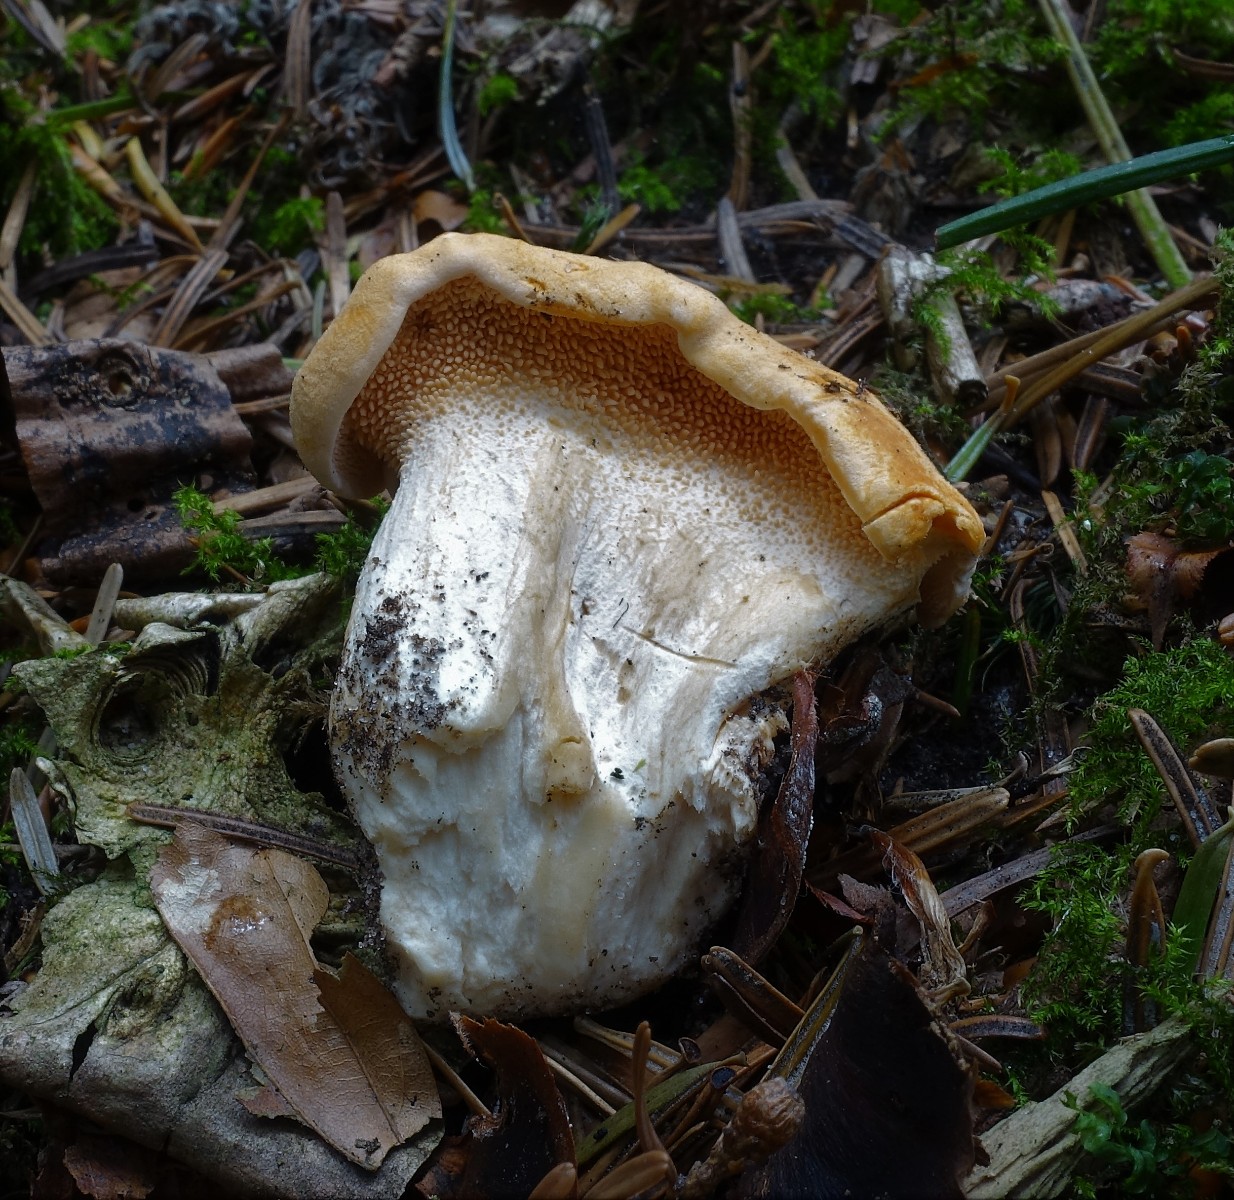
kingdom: Fungi
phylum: Basidiomycota
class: Agaricomycetes
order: Cantharellales
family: Hydnaceae
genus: Hydnum
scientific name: Hydnum repandum
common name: almindelig pigsvamp
